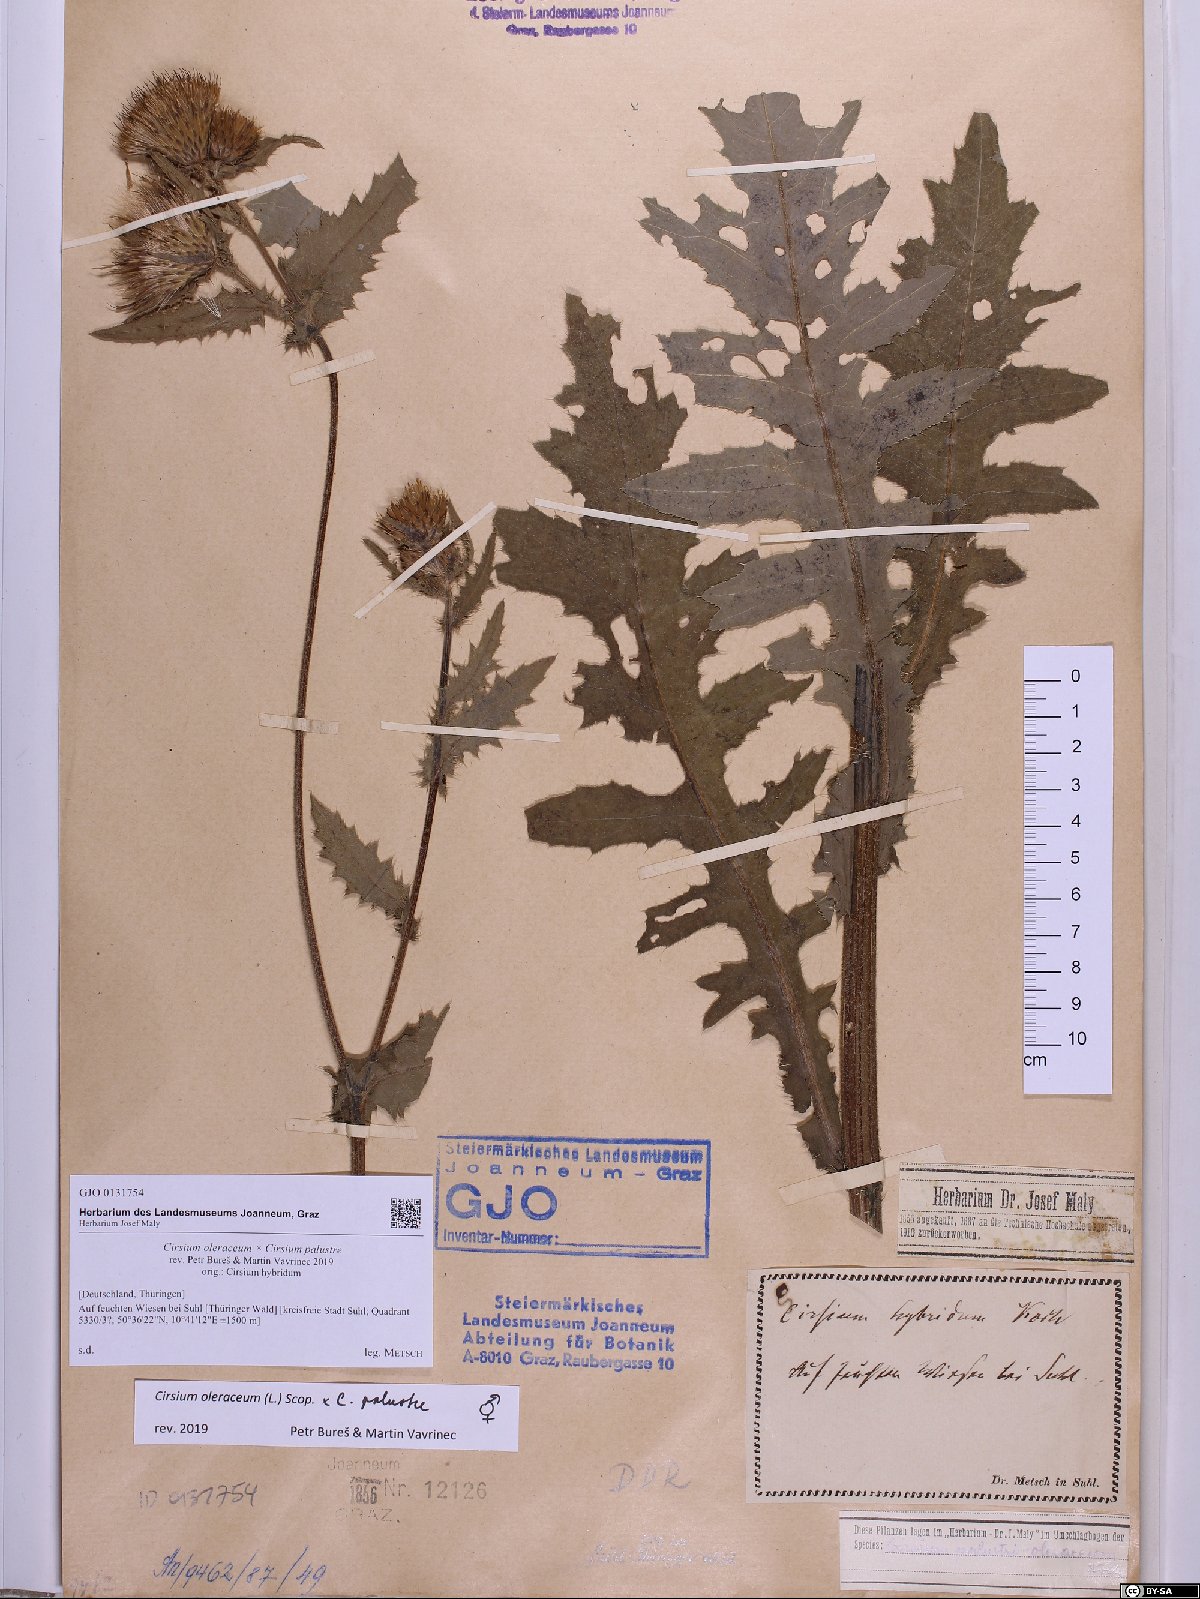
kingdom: Plantae
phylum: Tracheophyta
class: Magnoliopsida
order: Asterales
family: Asteraceae
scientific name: Asteraceae
